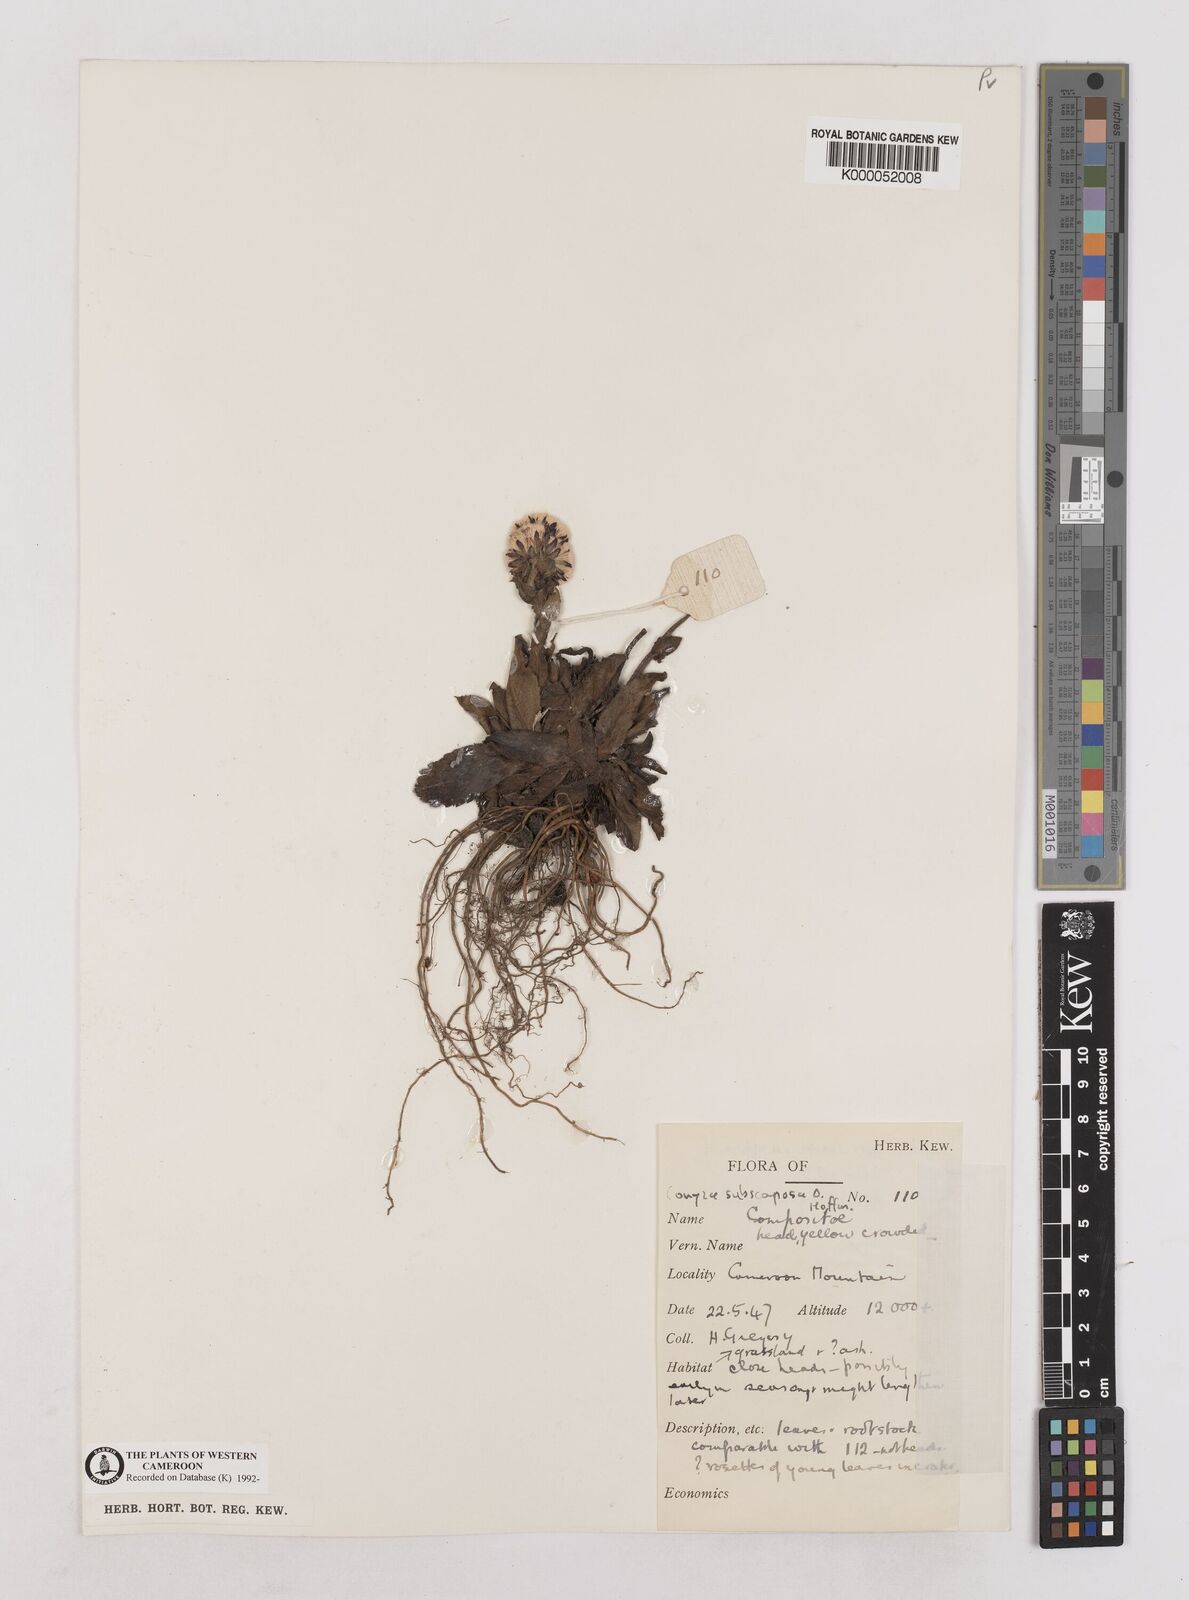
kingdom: Plantae
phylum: Tracheophyta
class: Magnoliopsida
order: Asterales
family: Asteraceae
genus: Eschenbachia
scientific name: Eschenbachia subscaposa
